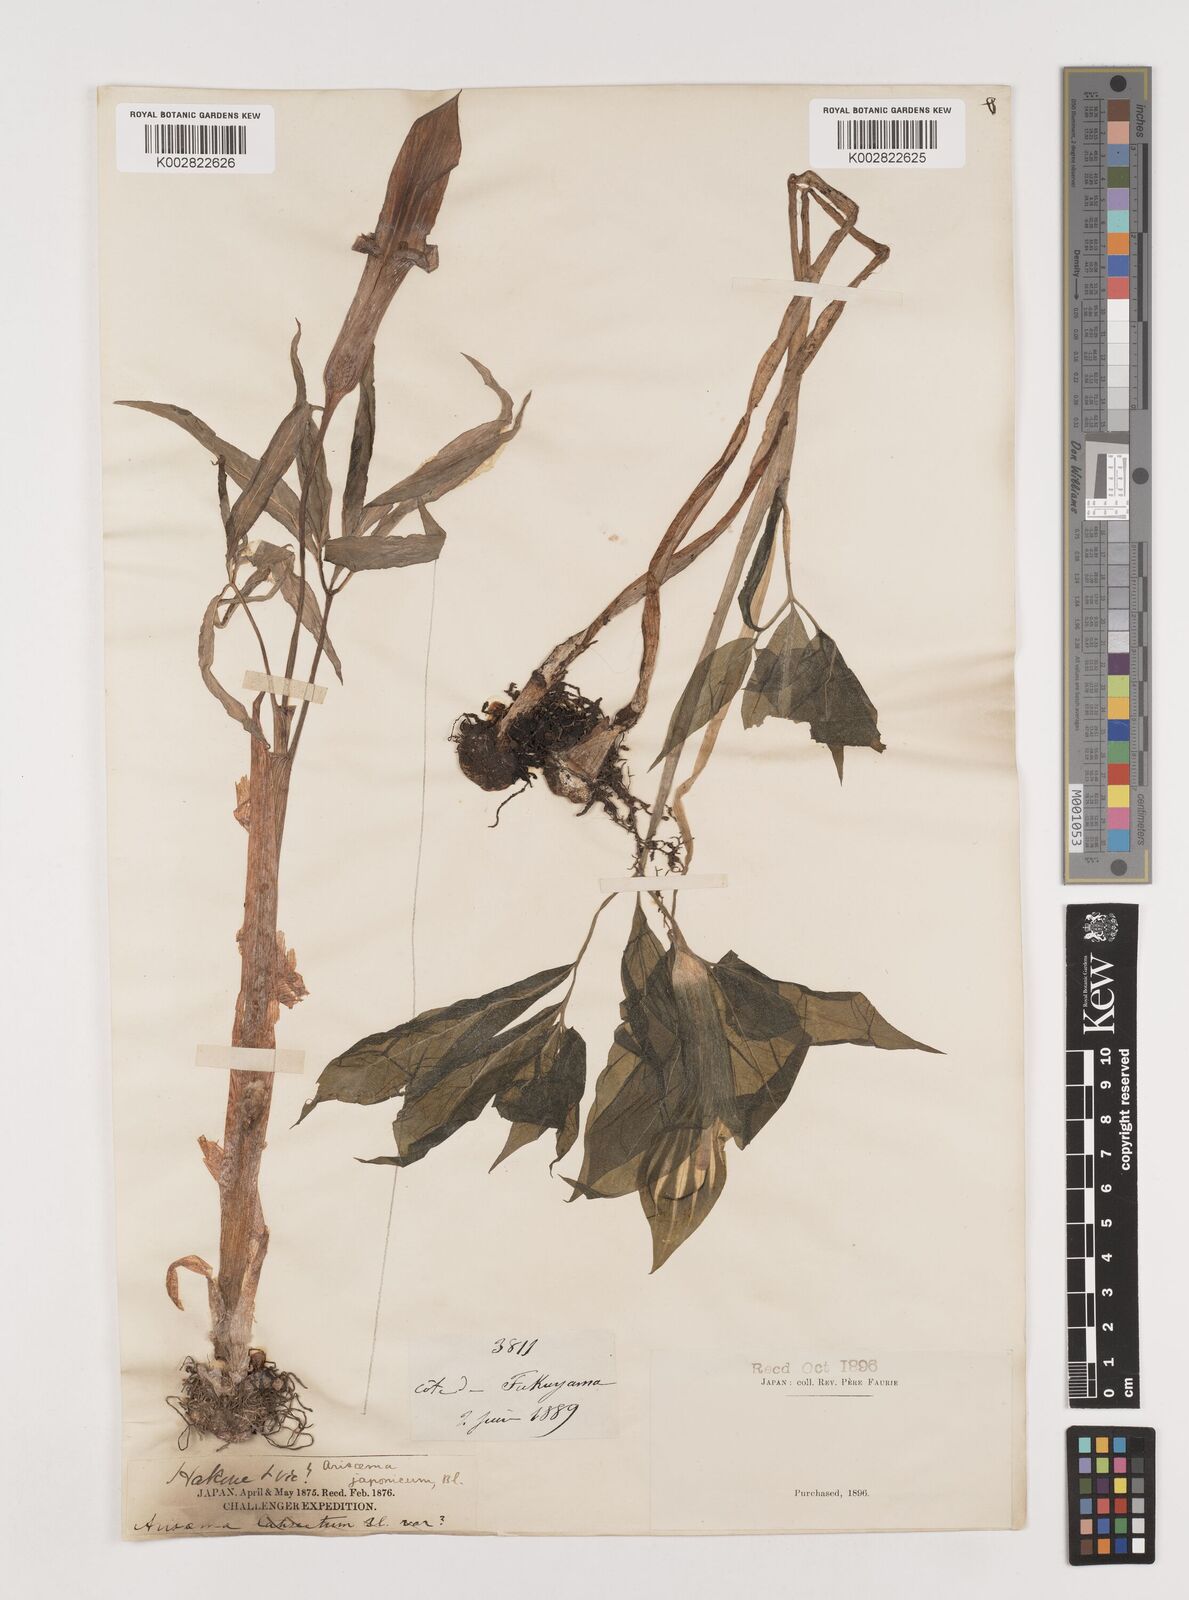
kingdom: Plantae
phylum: Tracheophyta
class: Liliopsida
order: Alismatales
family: Araceae
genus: Arisaema
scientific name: Arisaema serratum
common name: Japanese arisaema
